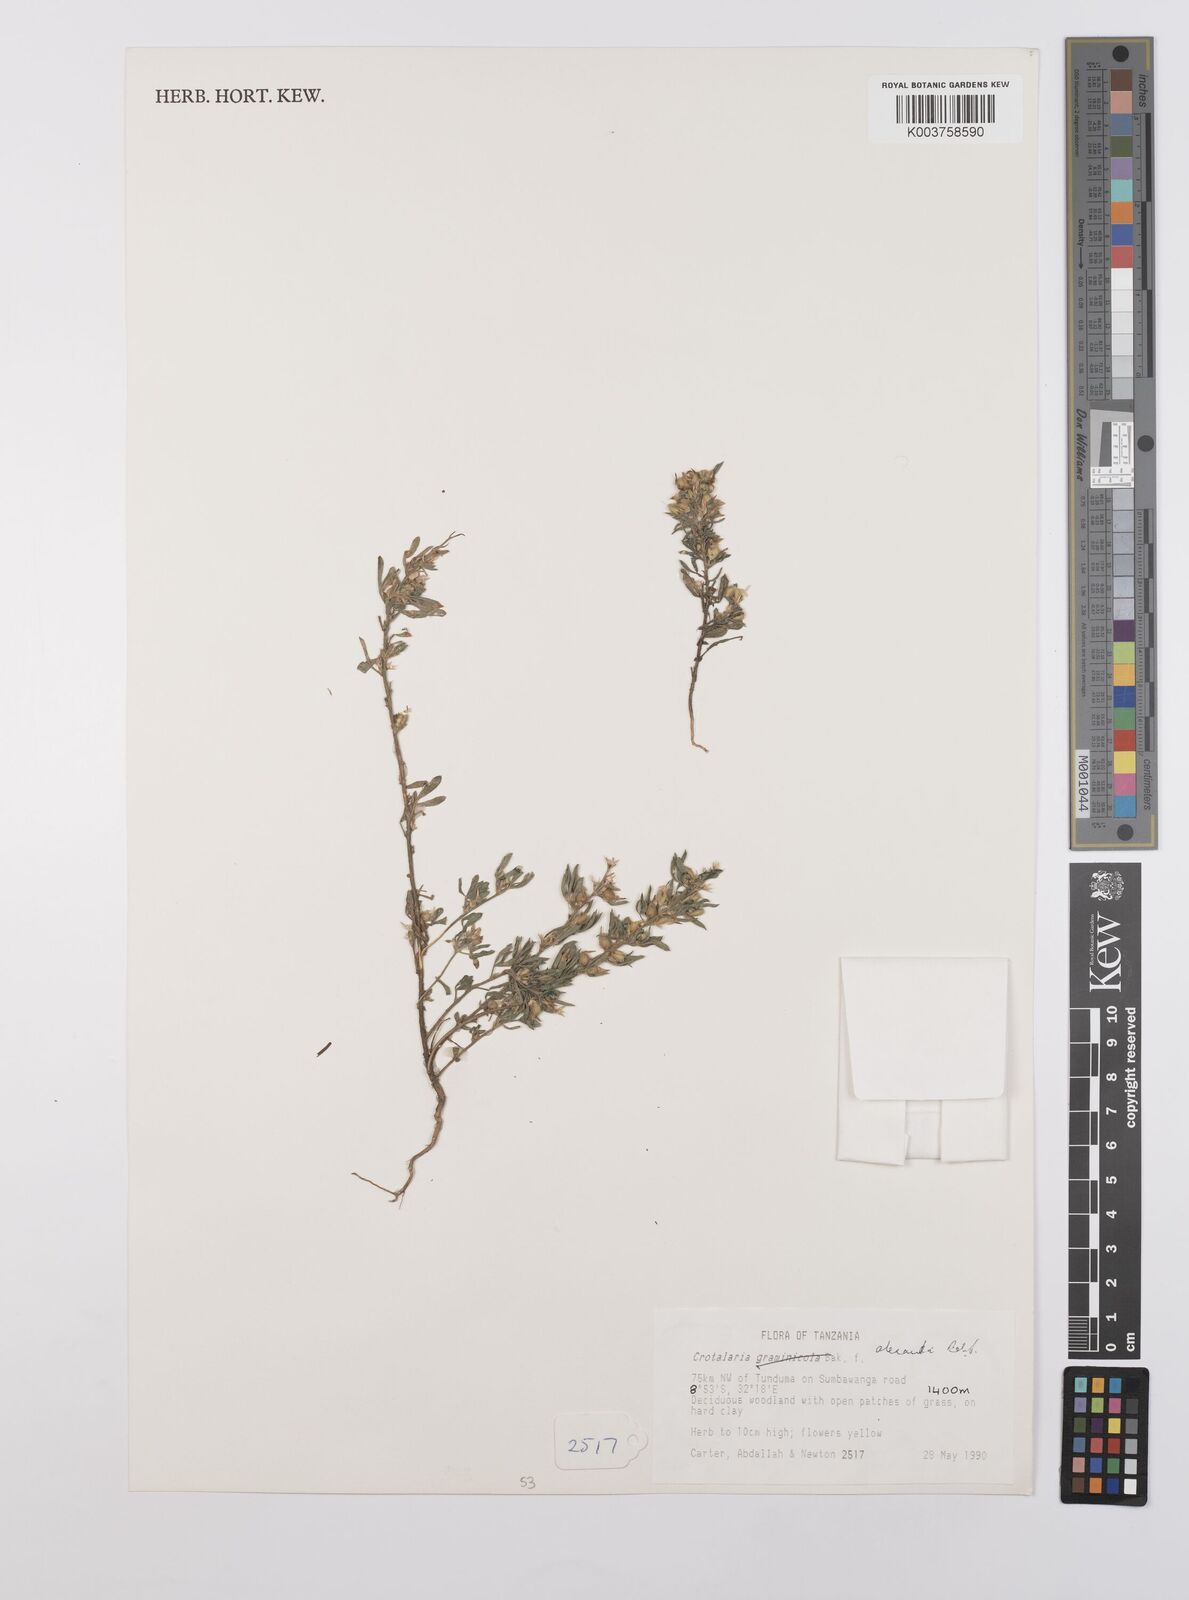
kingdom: Plantae
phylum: Tracheophyta
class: Magnoliopsida
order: Fabales
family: Fabaceae
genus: Crotalaria
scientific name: Crotalaria alexandri
